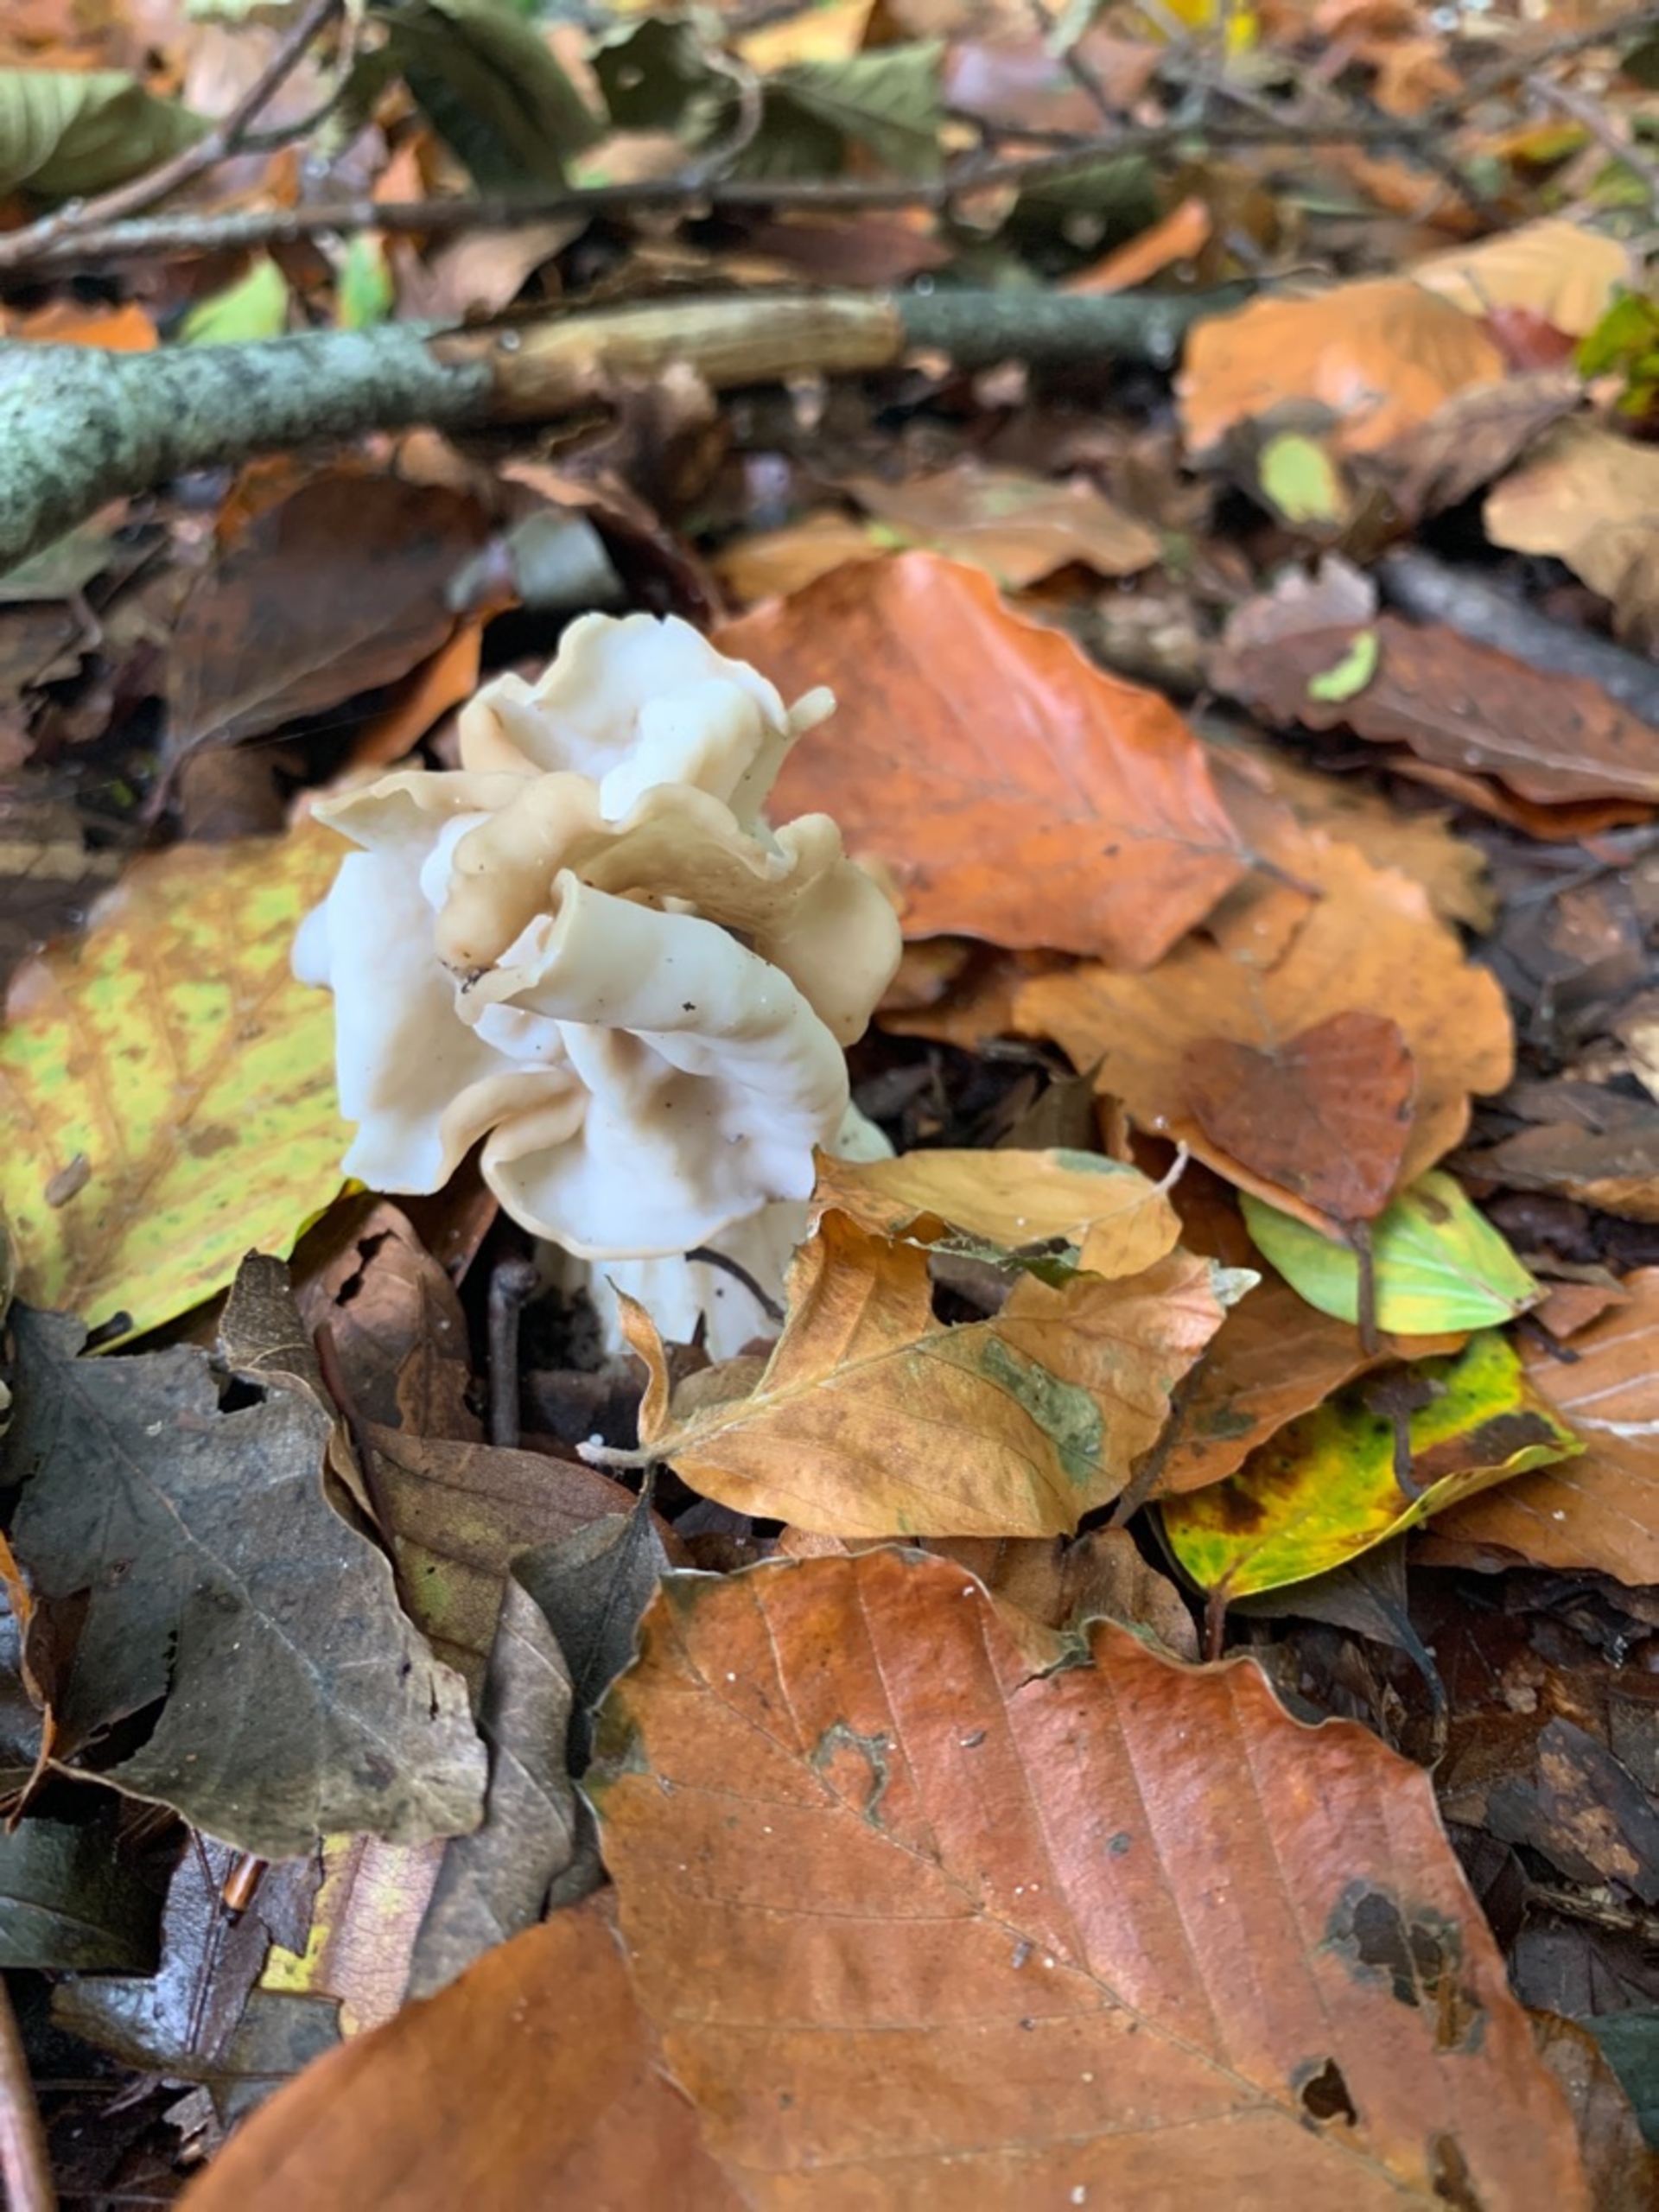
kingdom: Fungi
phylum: Ascomycota
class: Pezizomycetes
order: Pezizales
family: Helvellaceae
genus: Helvella
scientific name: Helvella crispa
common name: Kruset foldhat
